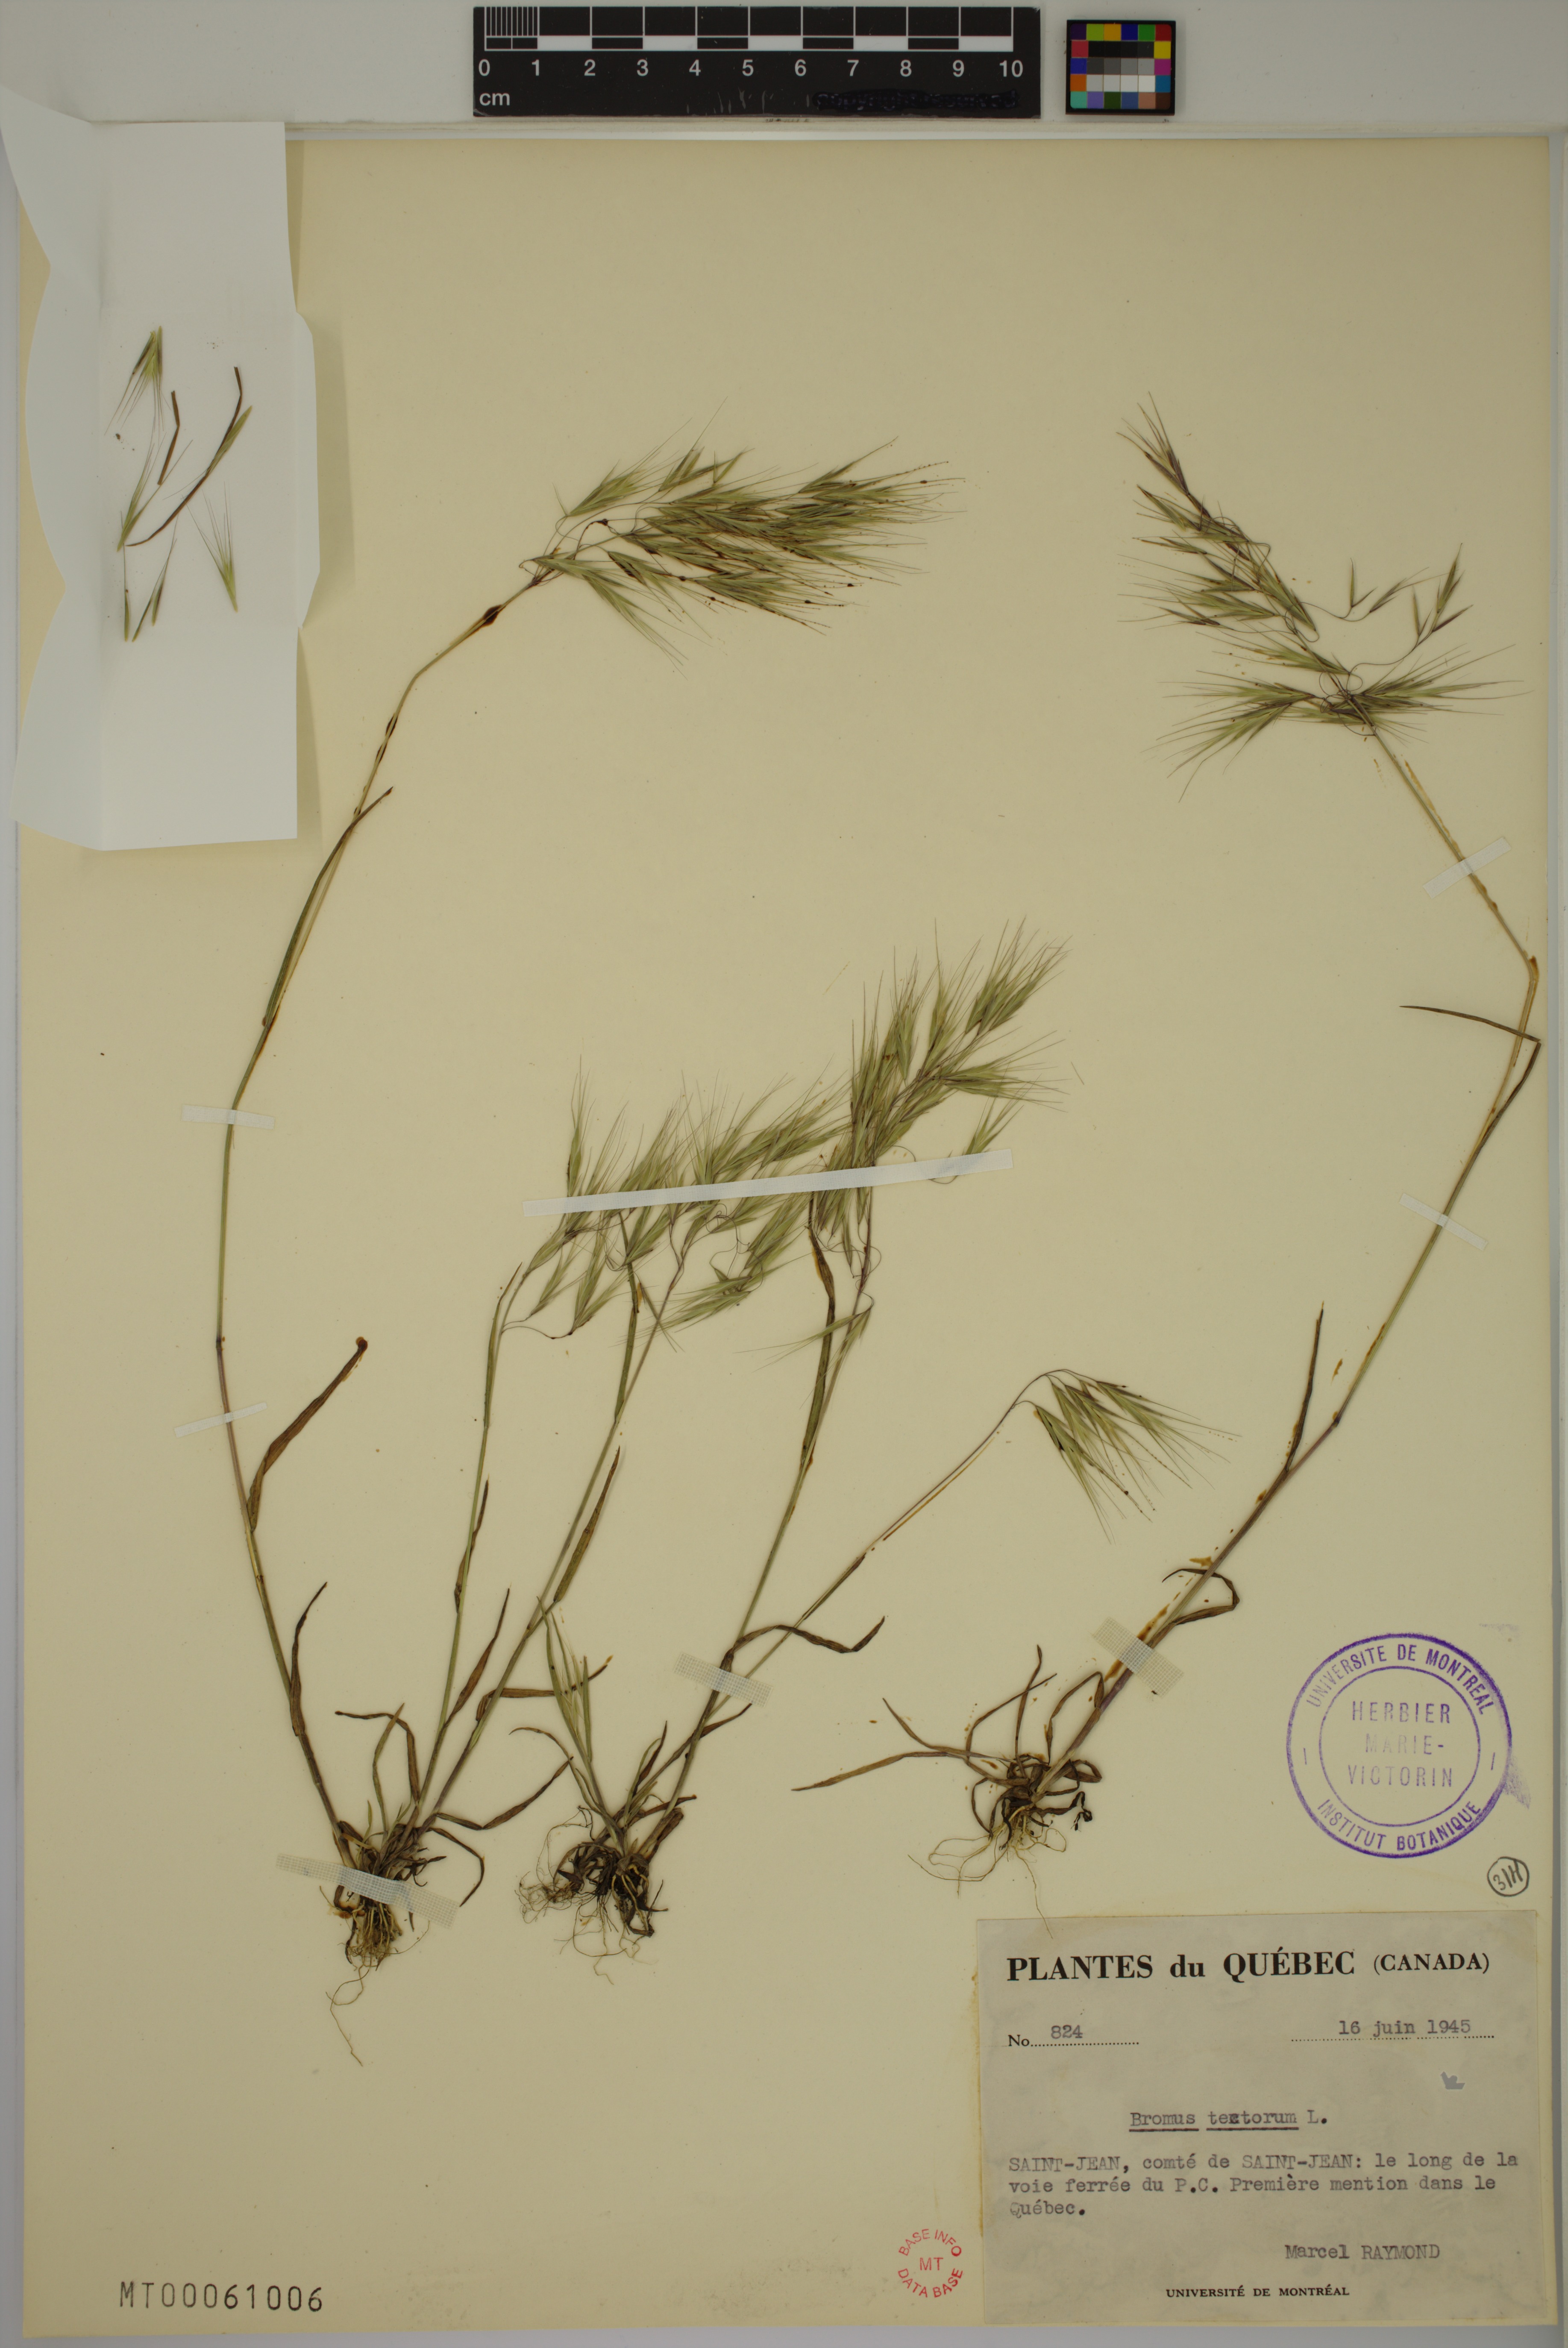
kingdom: Plantae
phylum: Tracheophyta
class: Liliopsida
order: Poales
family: Poaceae
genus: Bromus
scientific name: Bromus tectorum
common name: Cheatgrass
